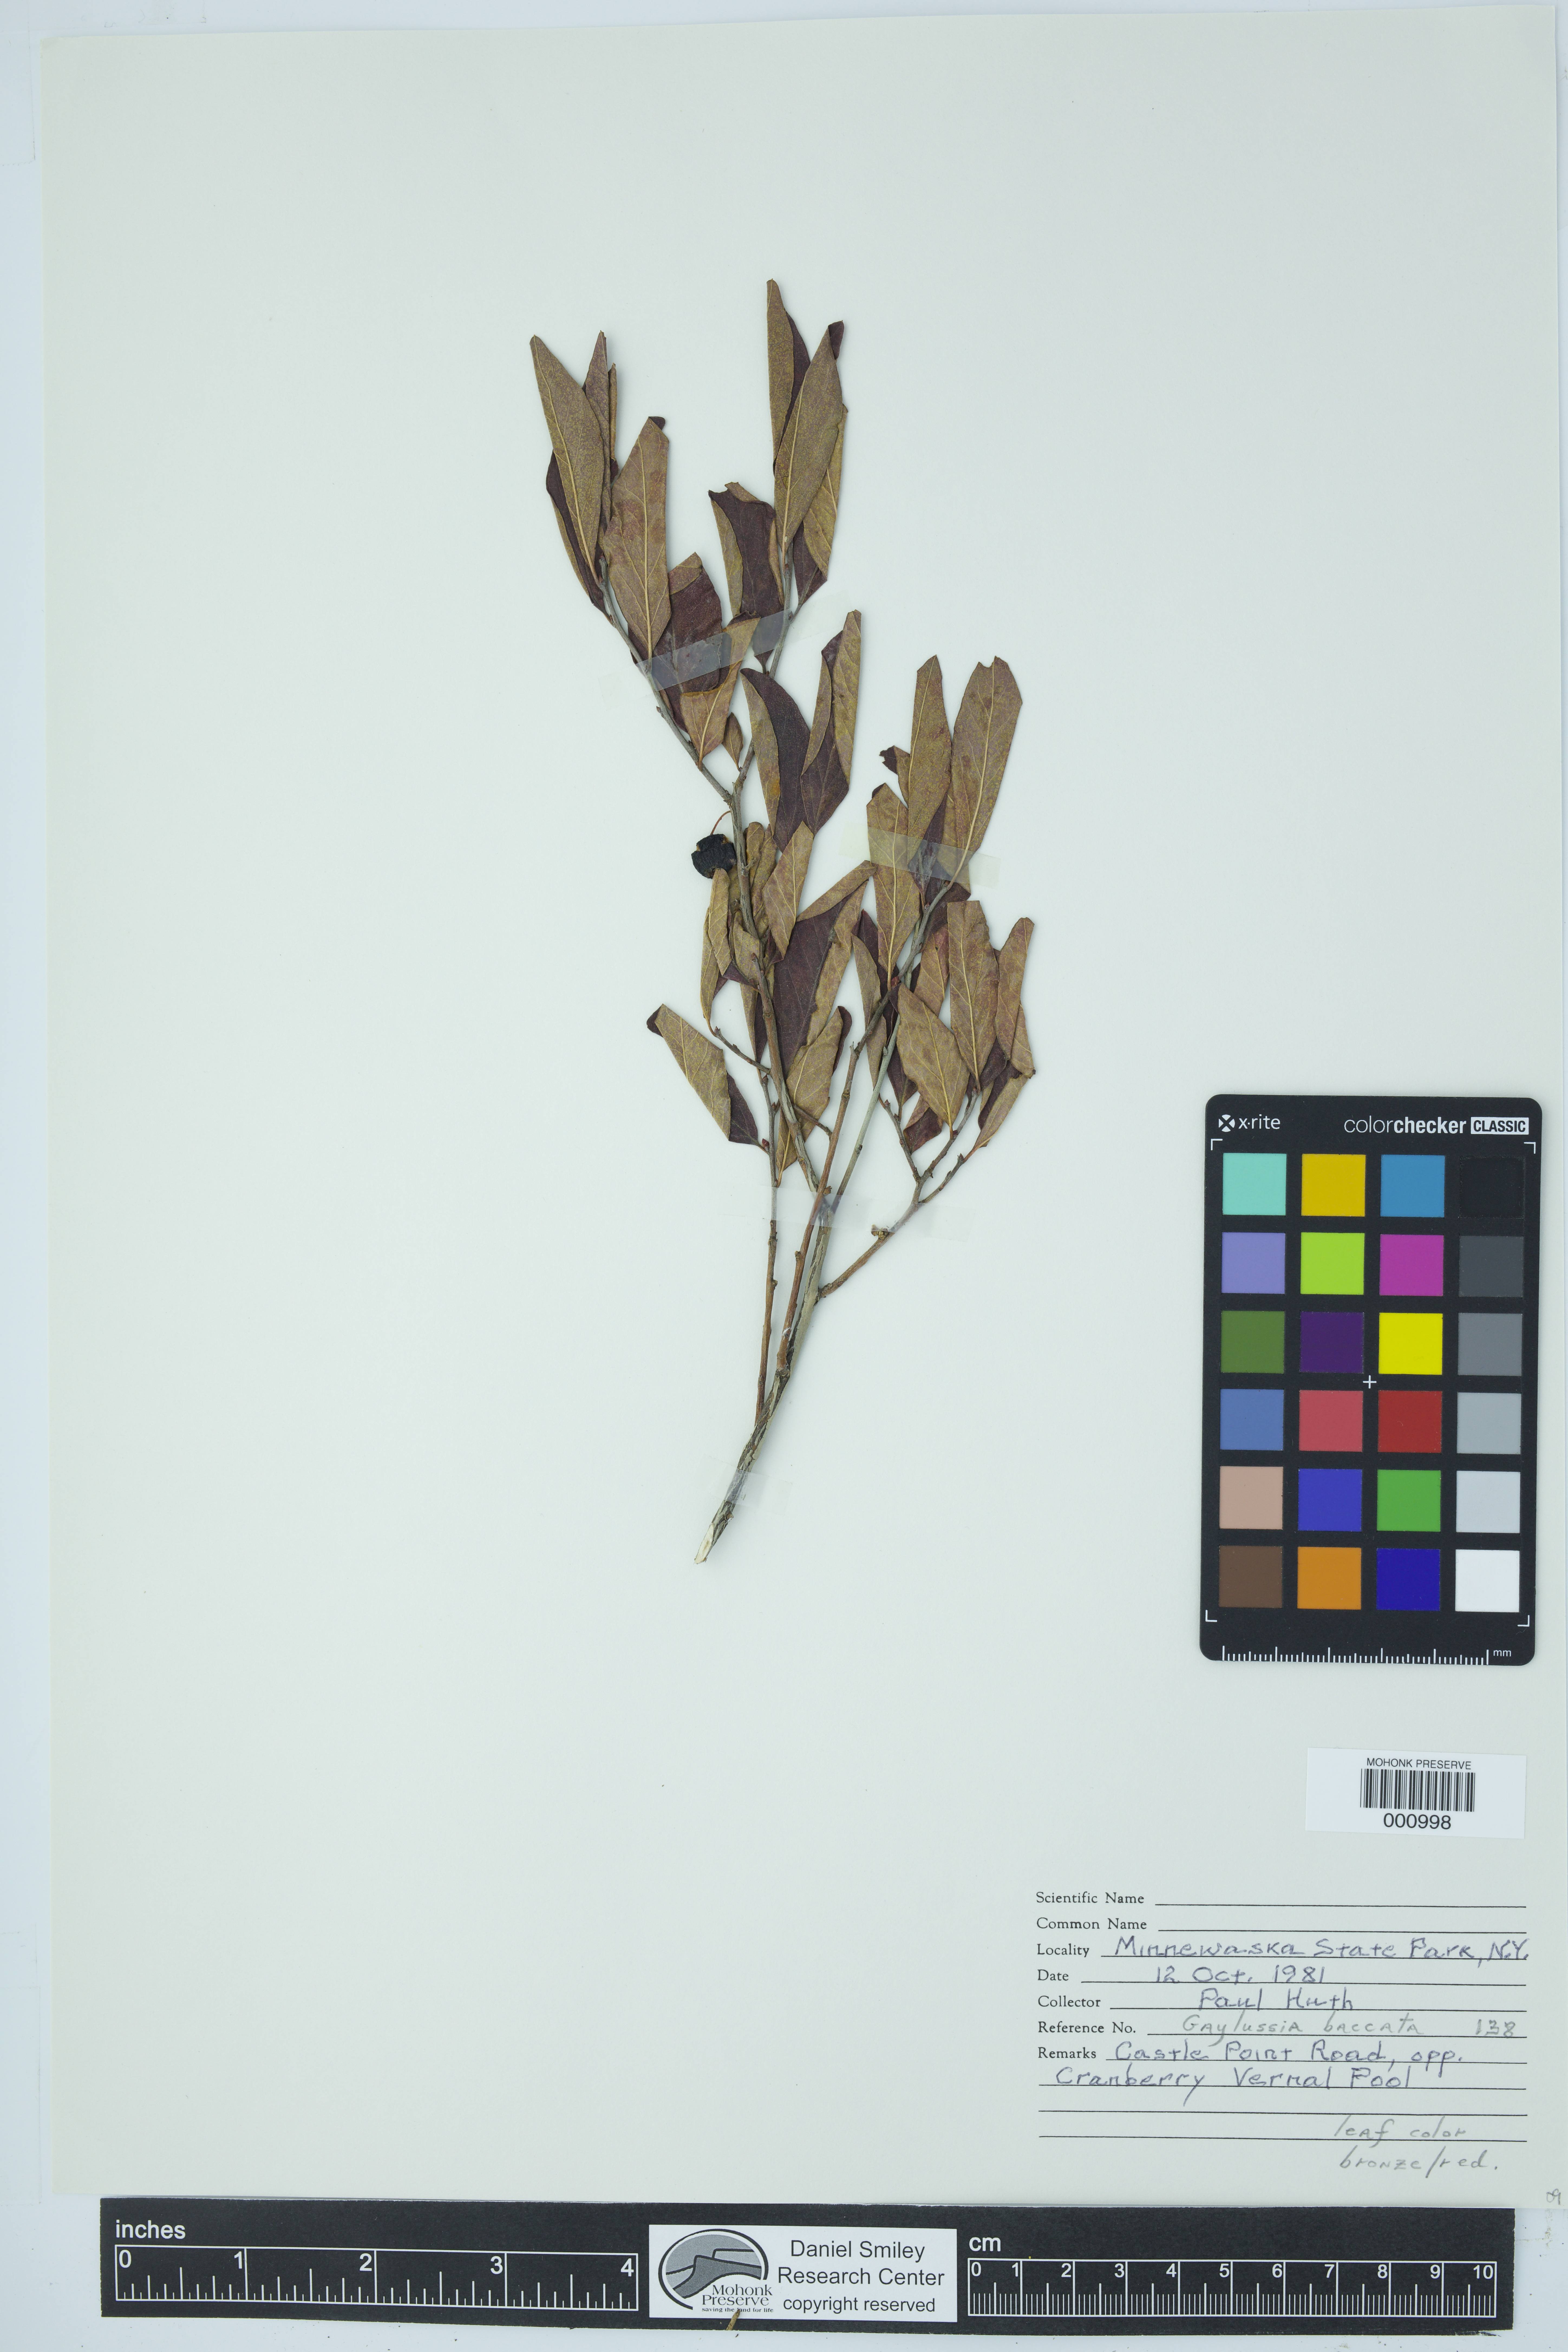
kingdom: Plantae
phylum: Tracheophyta
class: Magnoliopsida
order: Ericales
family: Ericaceae
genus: Gaylussacia
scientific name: Gaylussacia baccata
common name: Black huckleberry
